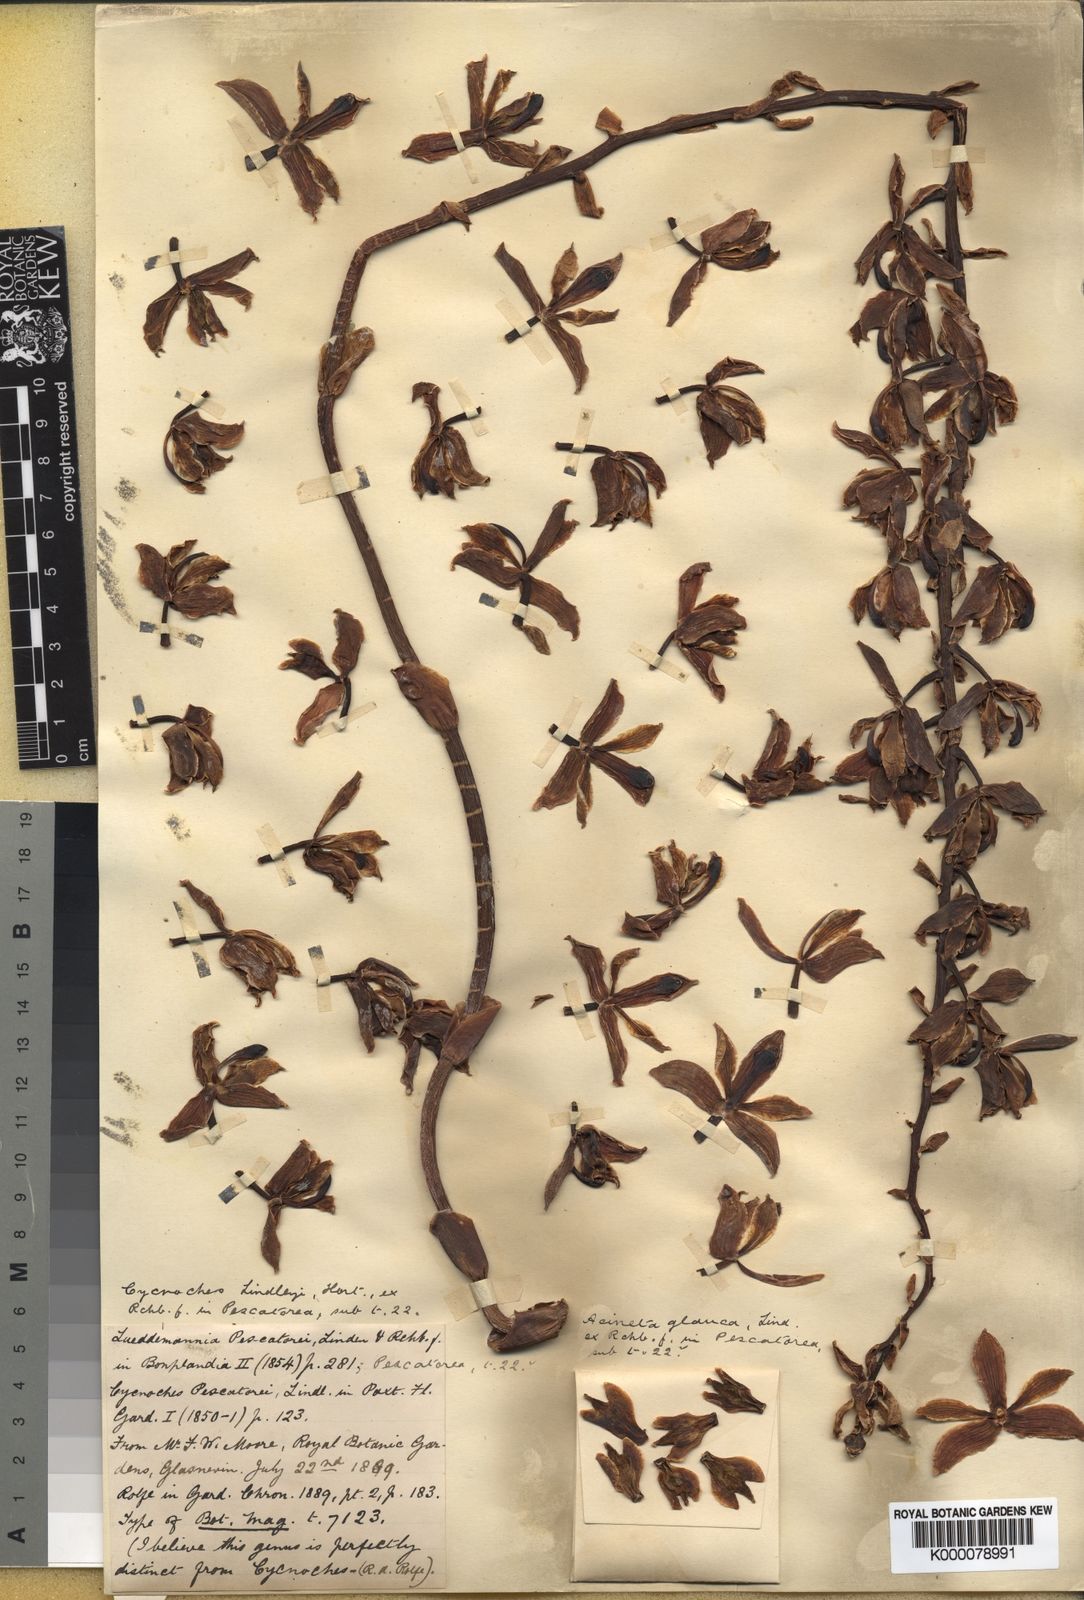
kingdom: Plantae
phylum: Tracheophyta
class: Liliopsida
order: Asparagales
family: Orchidaceae
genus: Lueddemannia
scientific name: Lueddemannia pescatorei
